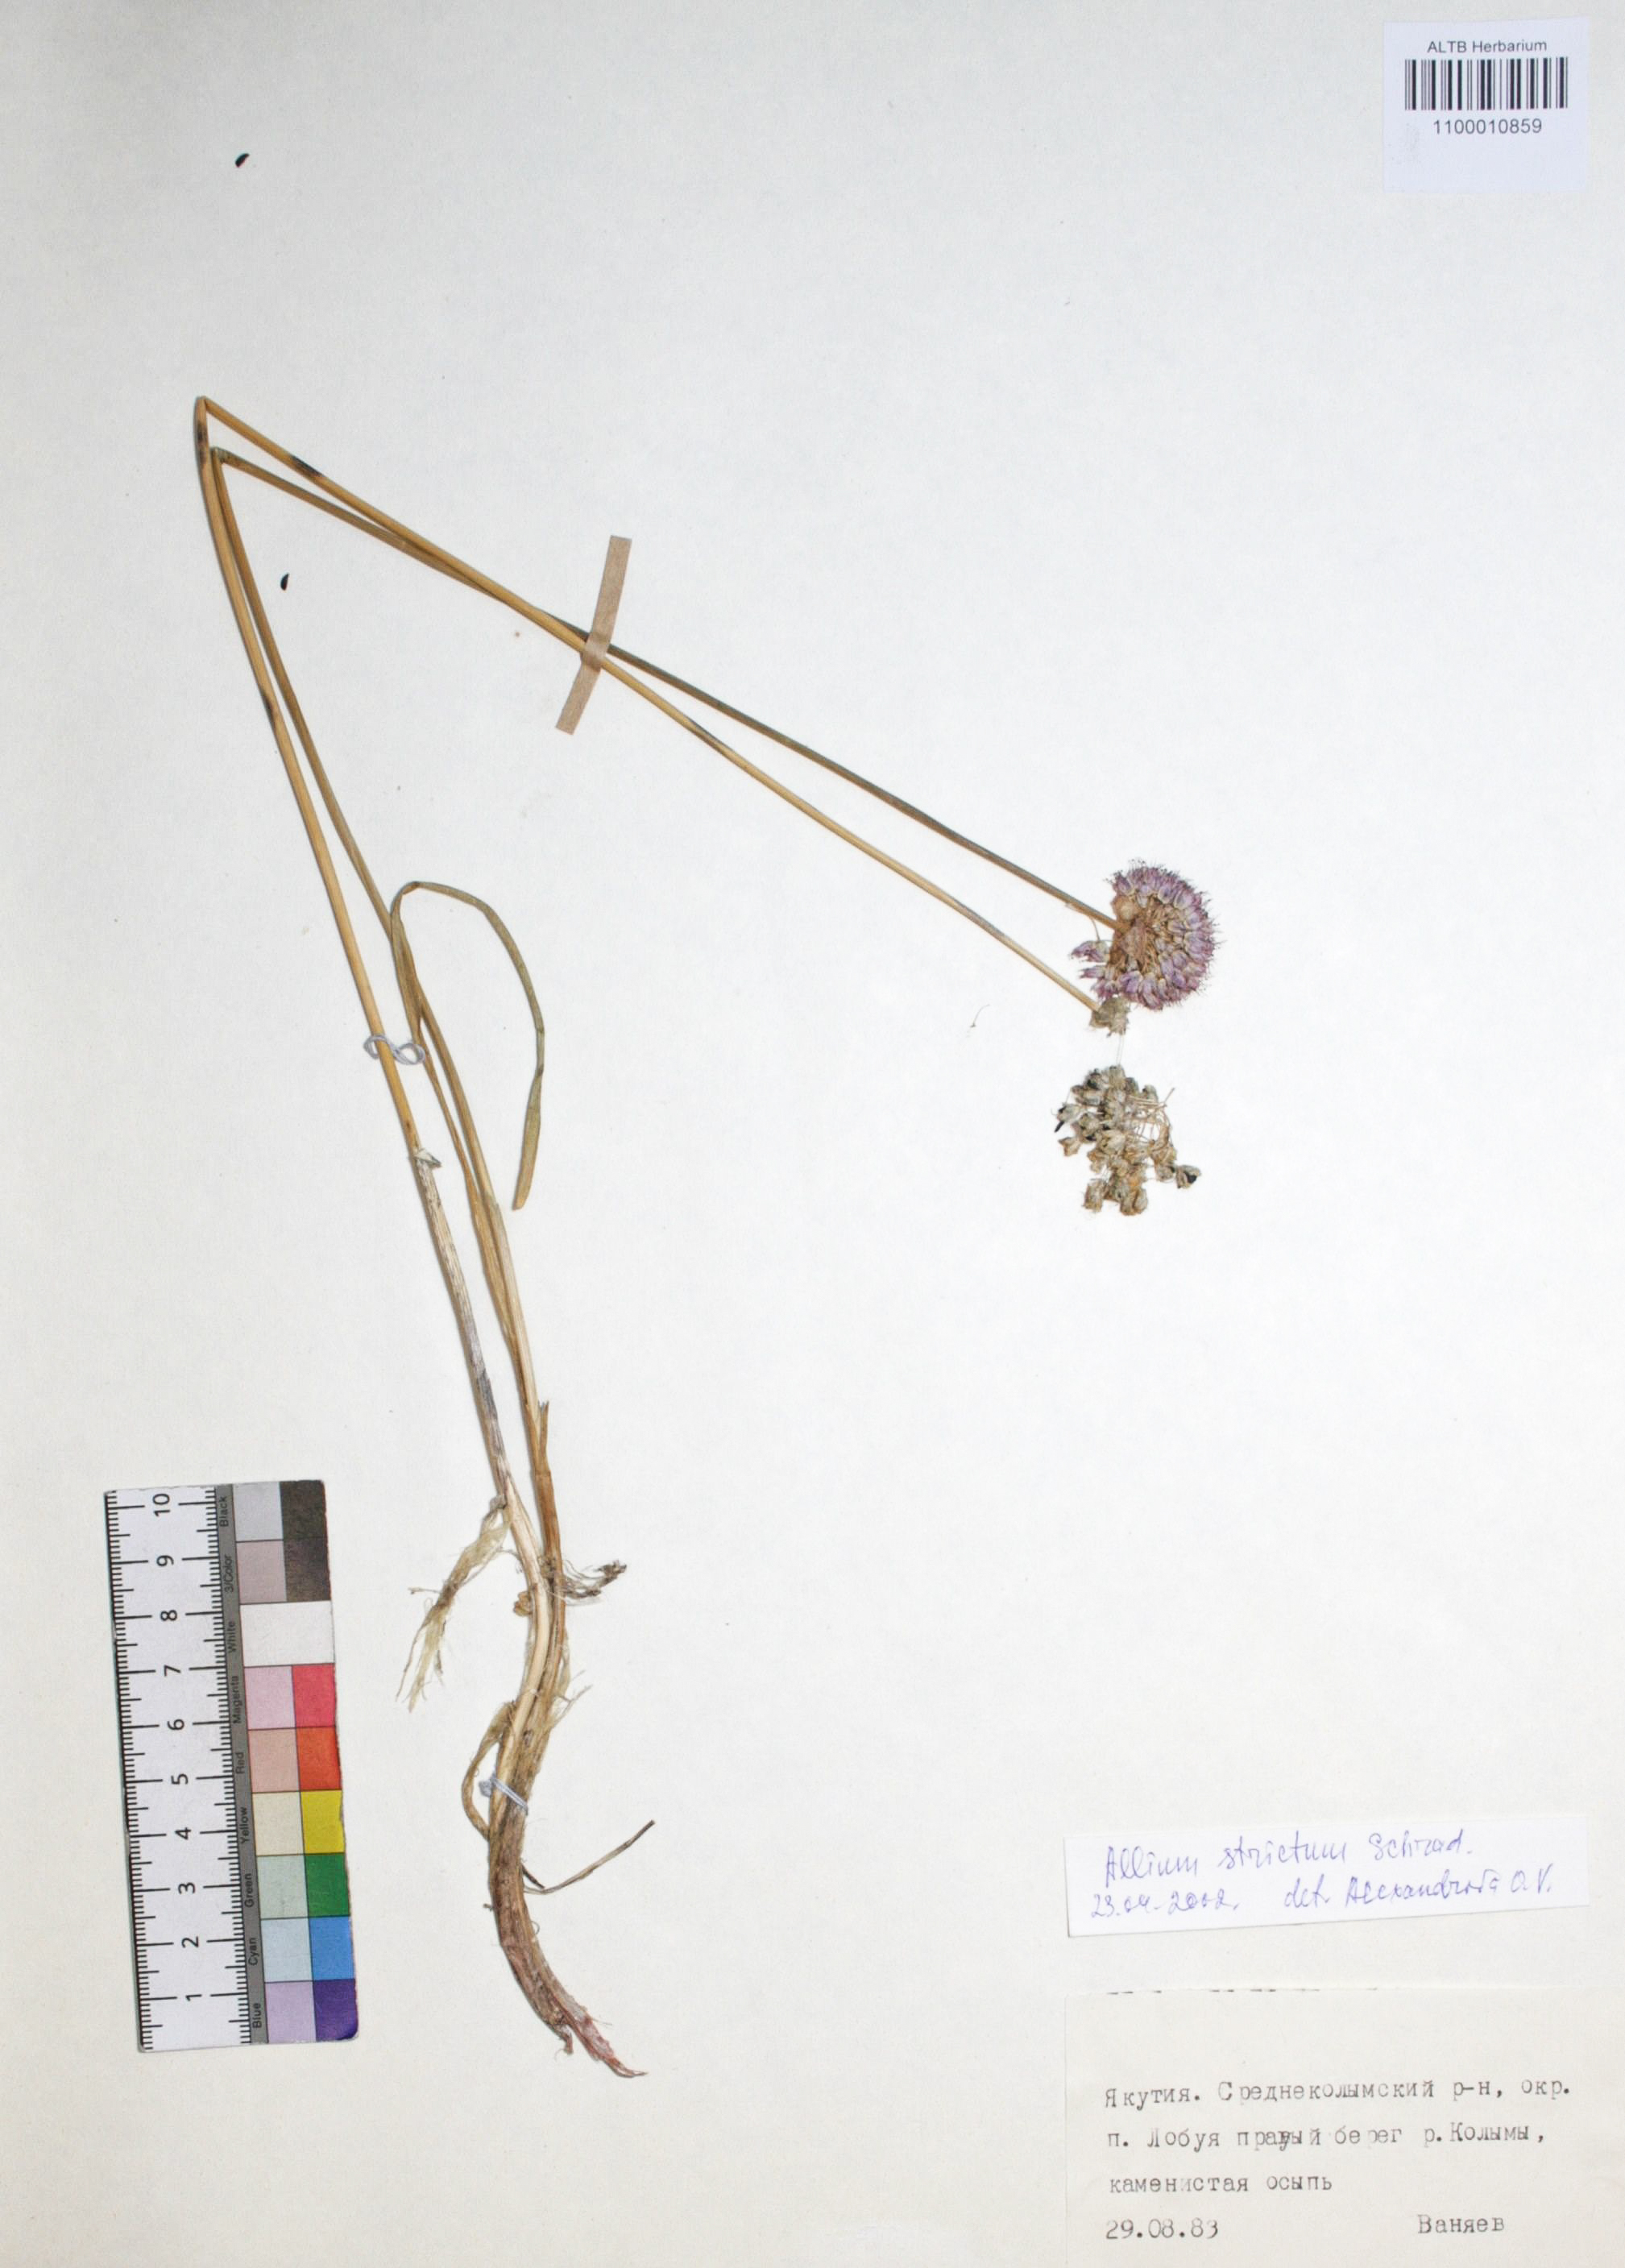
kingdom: Plantae
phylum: Tracheophyta
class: Liliopsida
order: Asparagales
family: Amaryllidaceae
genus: Allium
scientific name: Allium strictum
